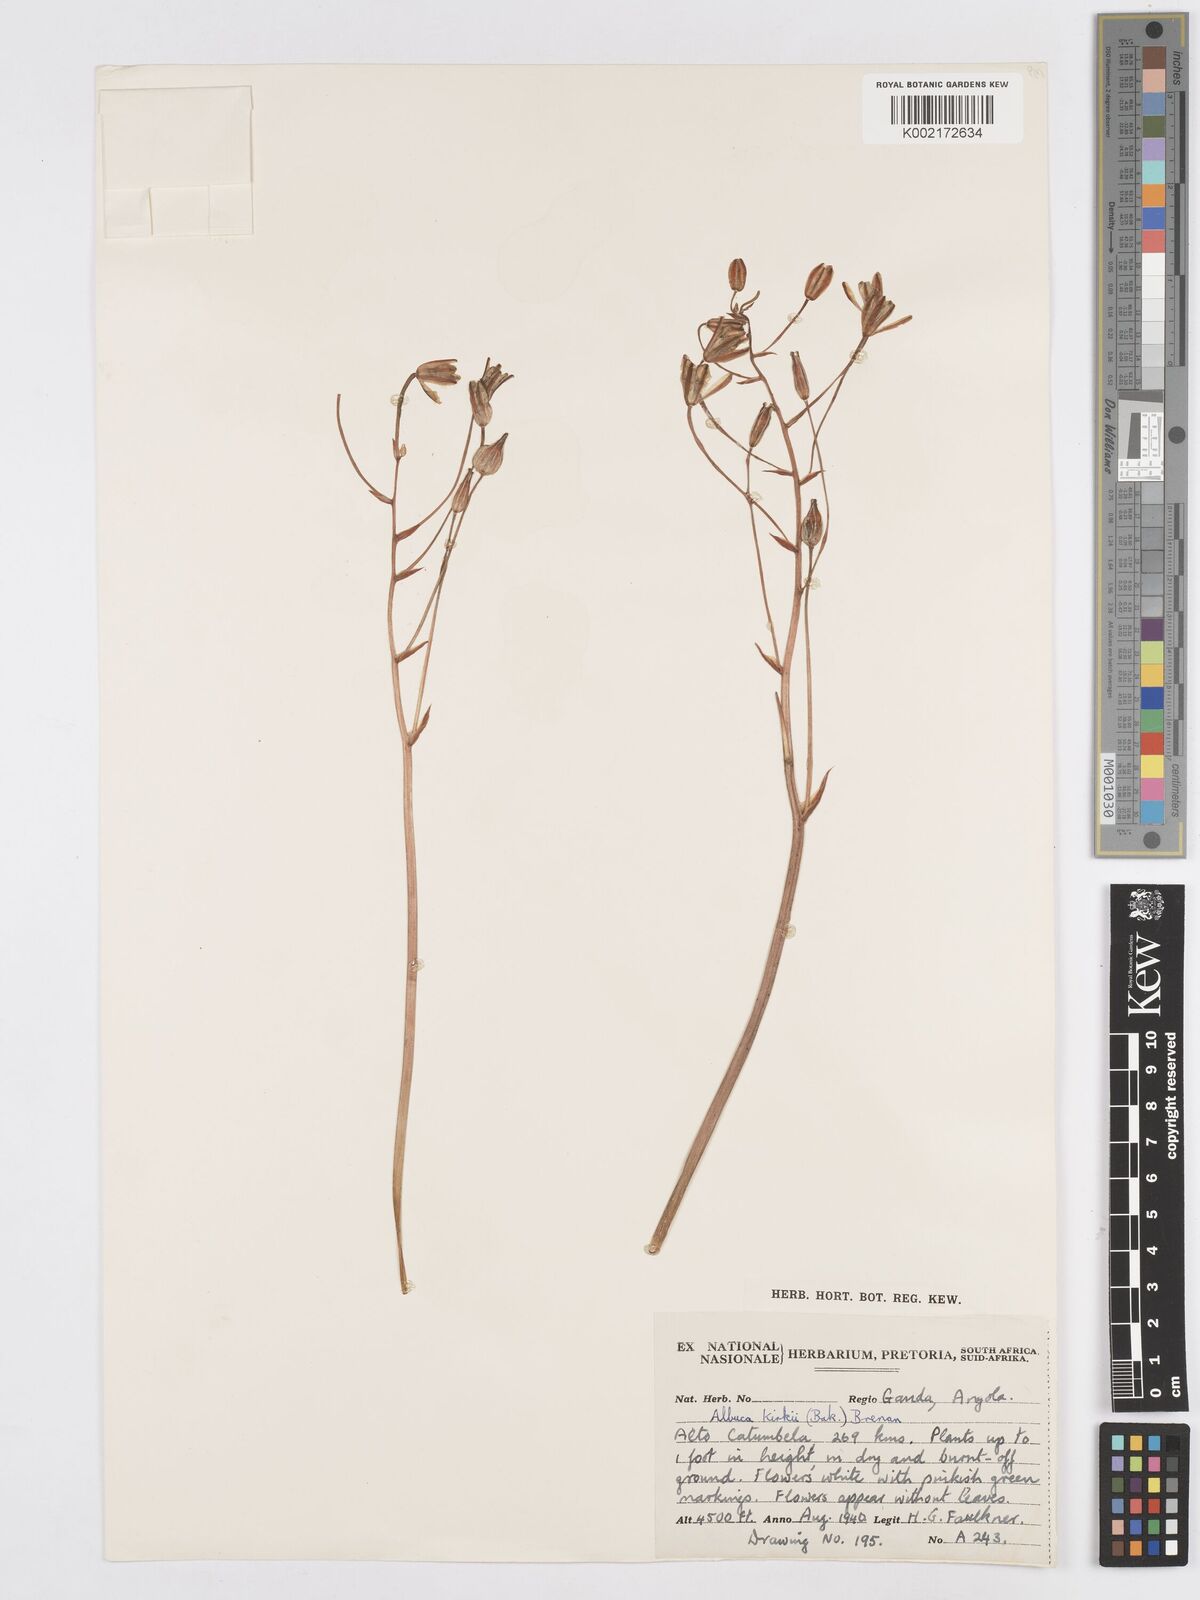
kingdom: Plantae
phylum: Tracheophyta
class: Liliopsida
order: Asparagales
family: Asparagaceae
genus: Albuca
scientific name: Albuca kirkii
